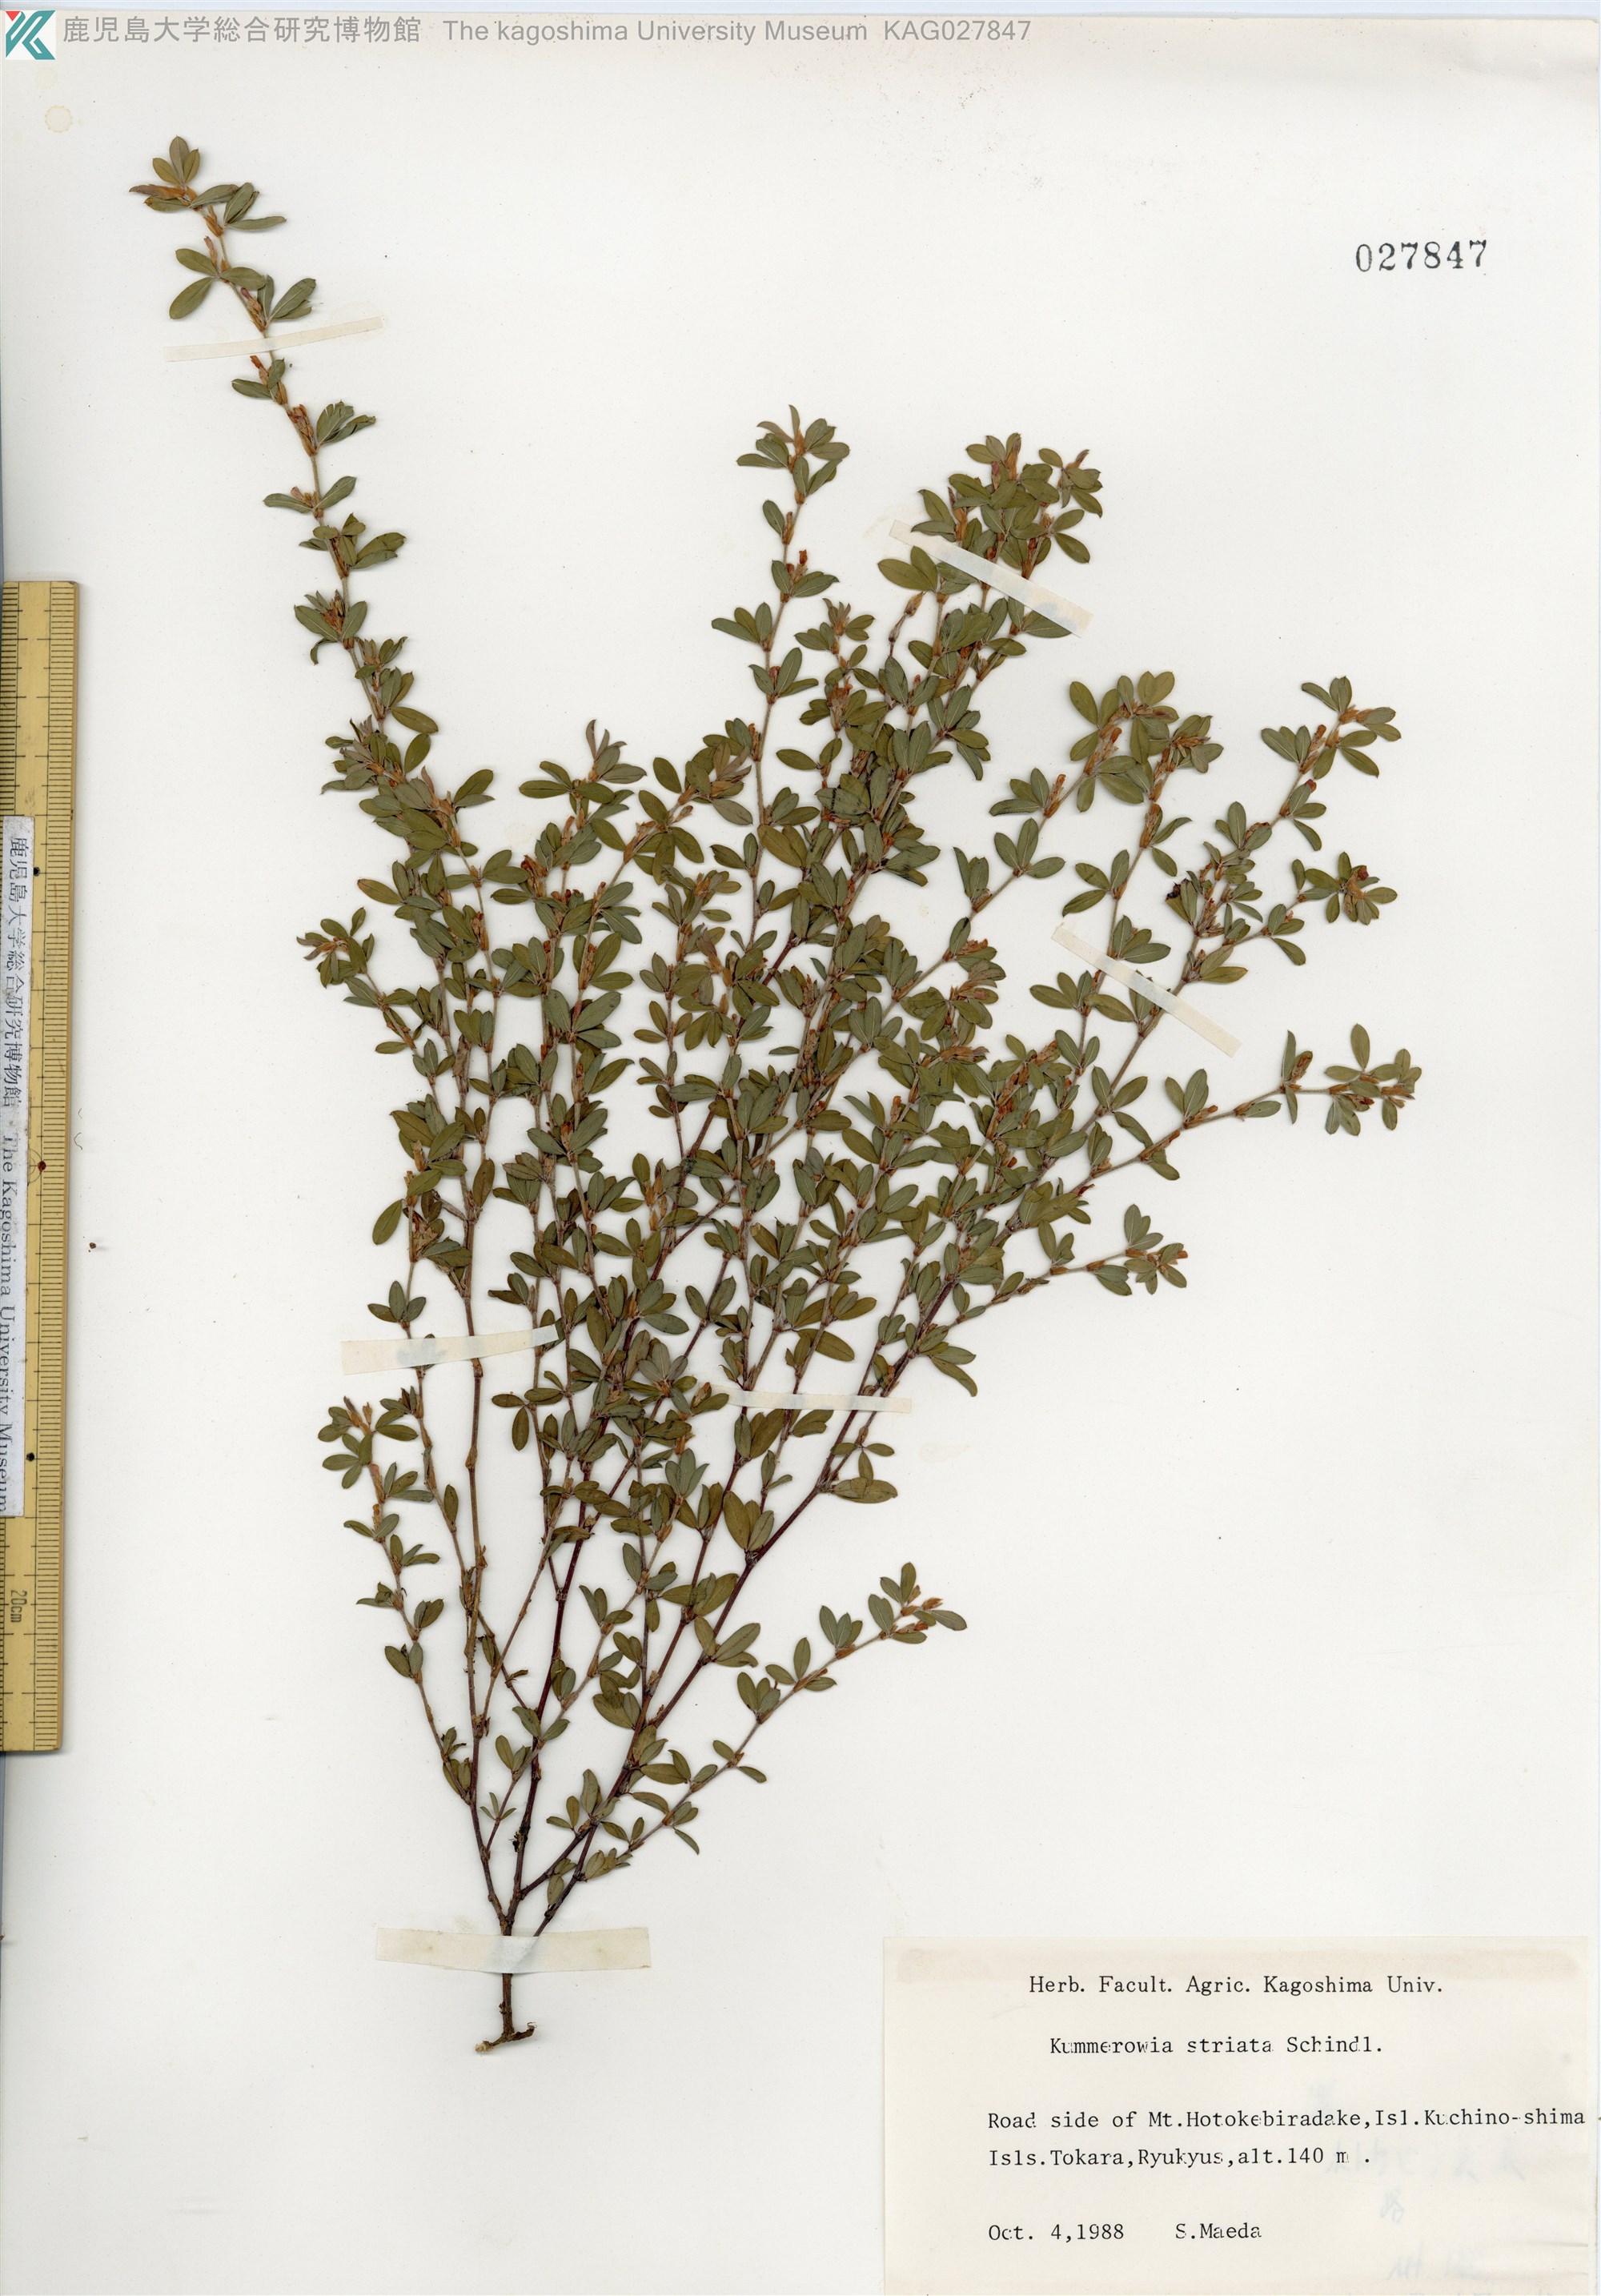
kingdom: Plantae
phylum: Tracheophyta
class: Magnoliopsida
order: Fabales
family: Fabaceae
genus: Kummerowia
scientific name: Kummerowia striata
